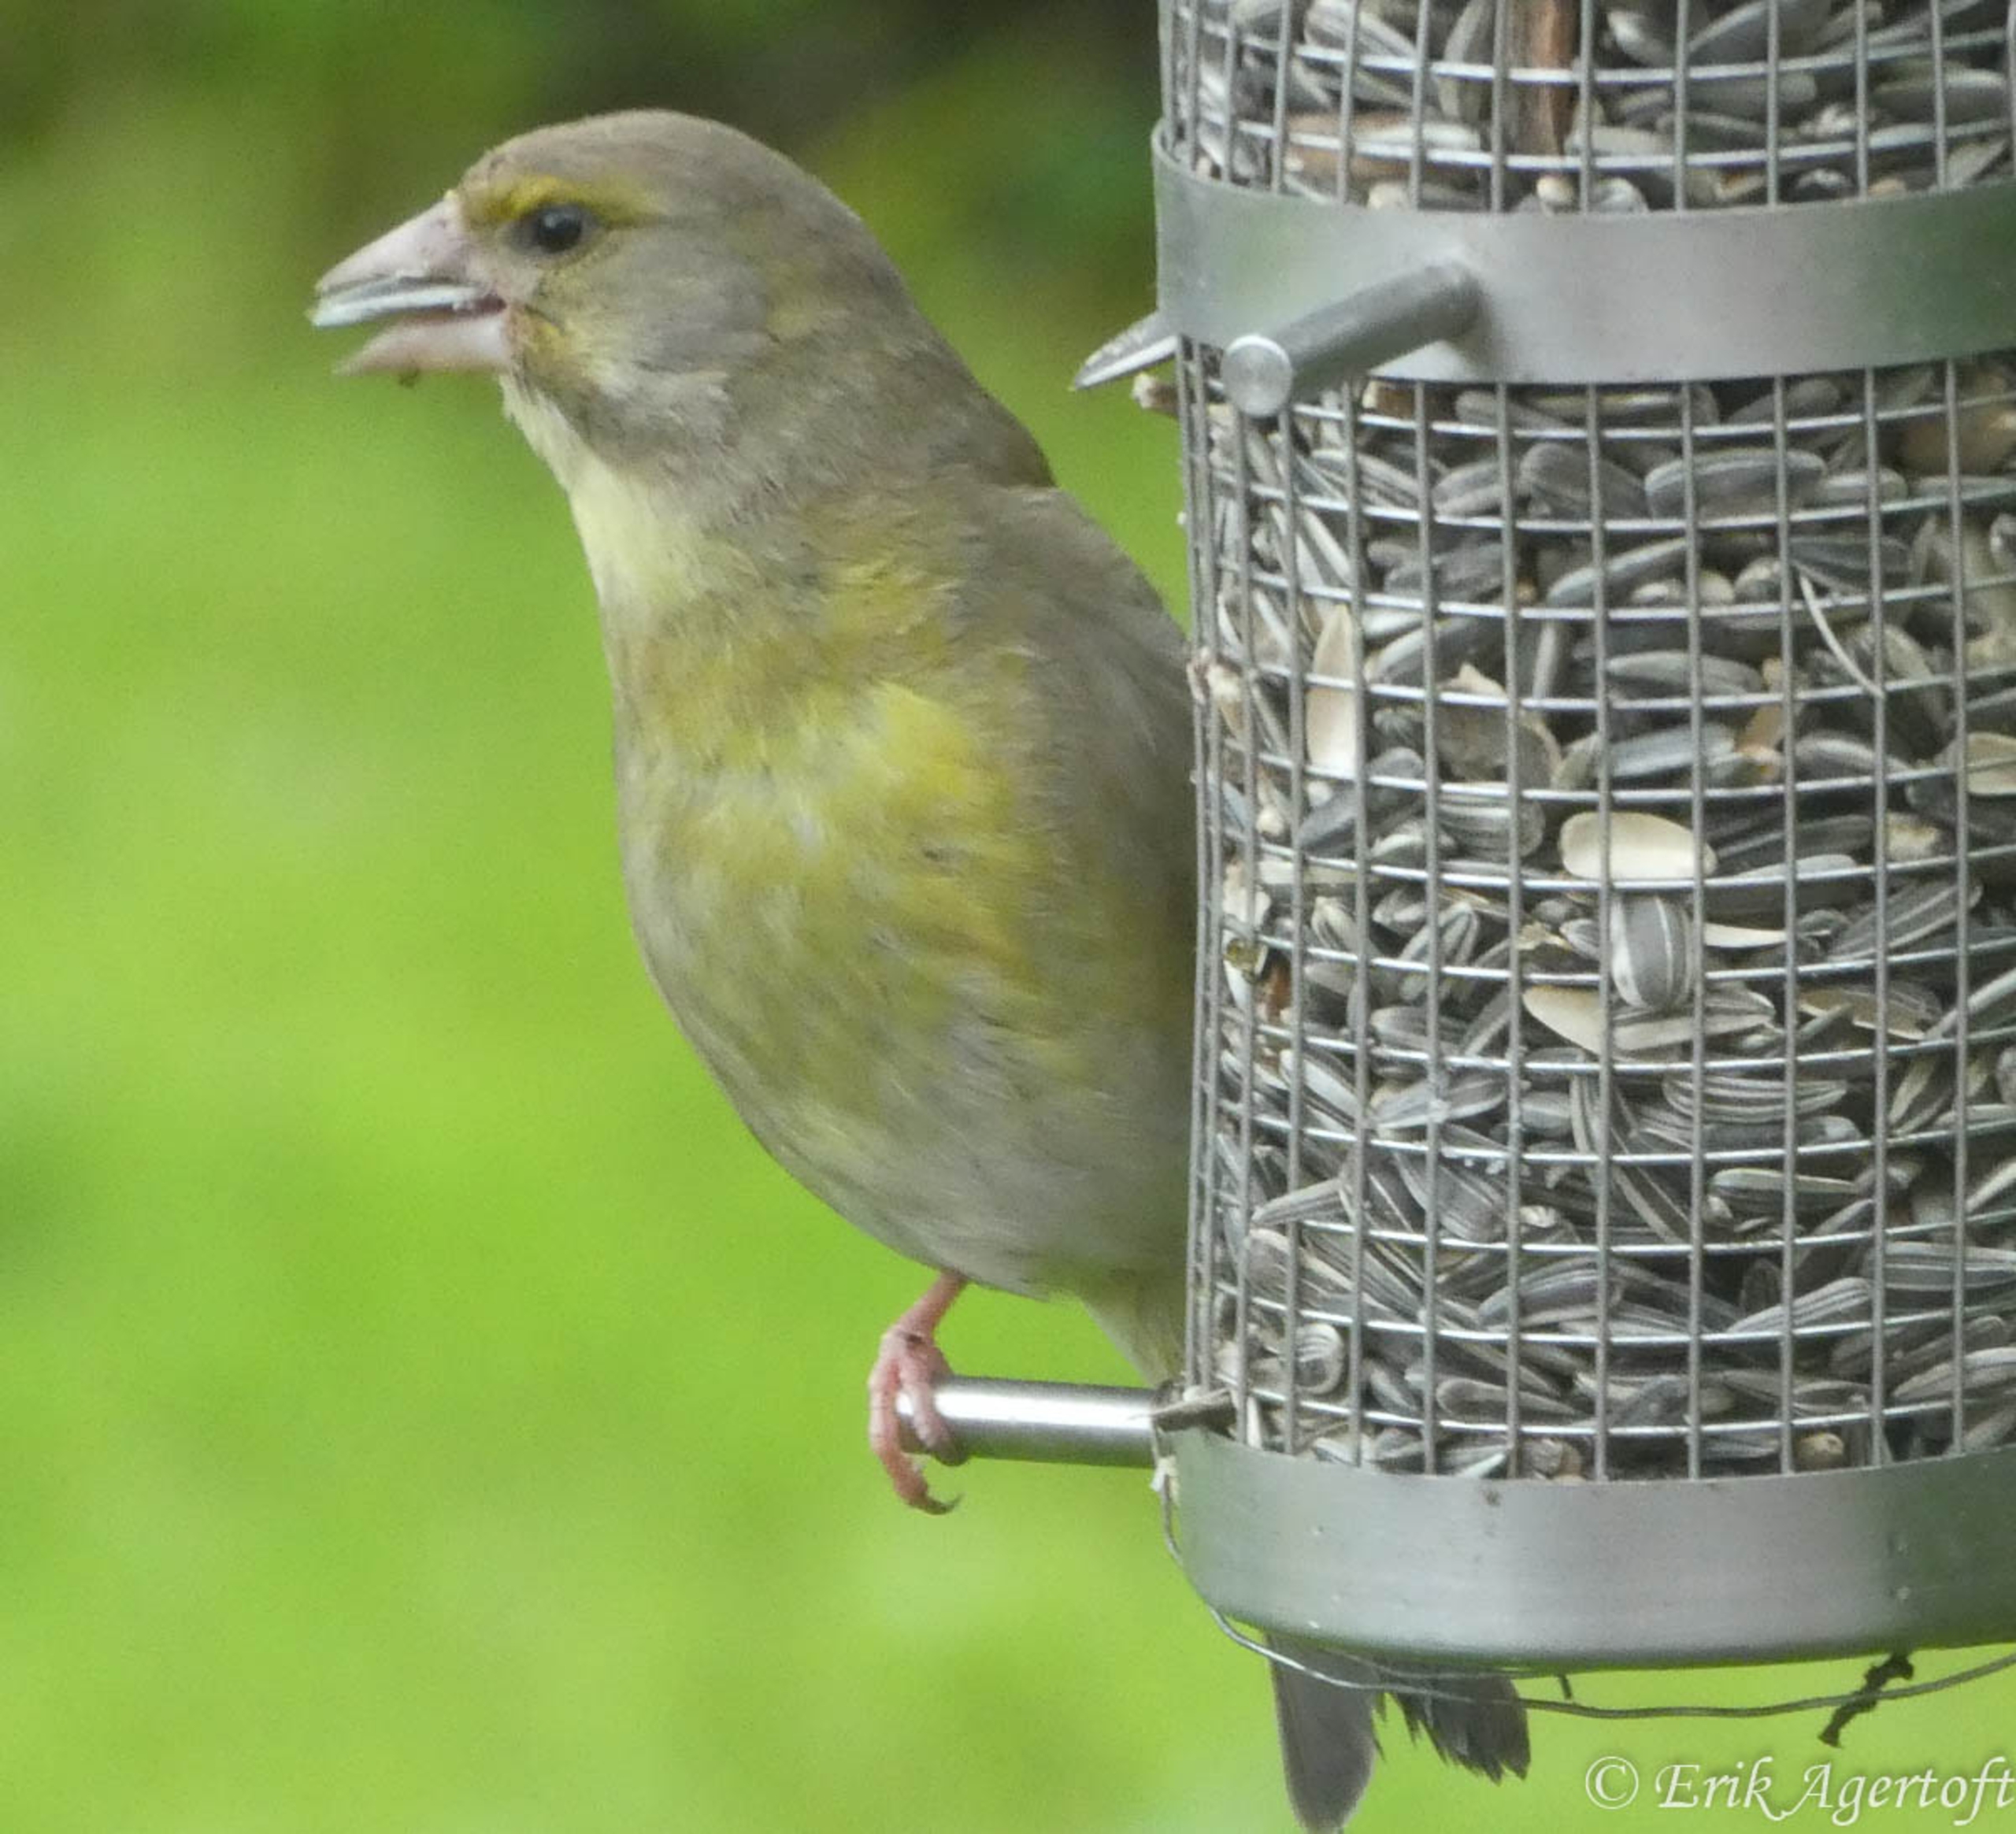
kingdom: Plantae
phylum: Tracheophyta
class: Liliopsida
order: Poales
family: Poaceae
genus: Chloris
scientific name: Chloris chloris
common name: Grønirisk
